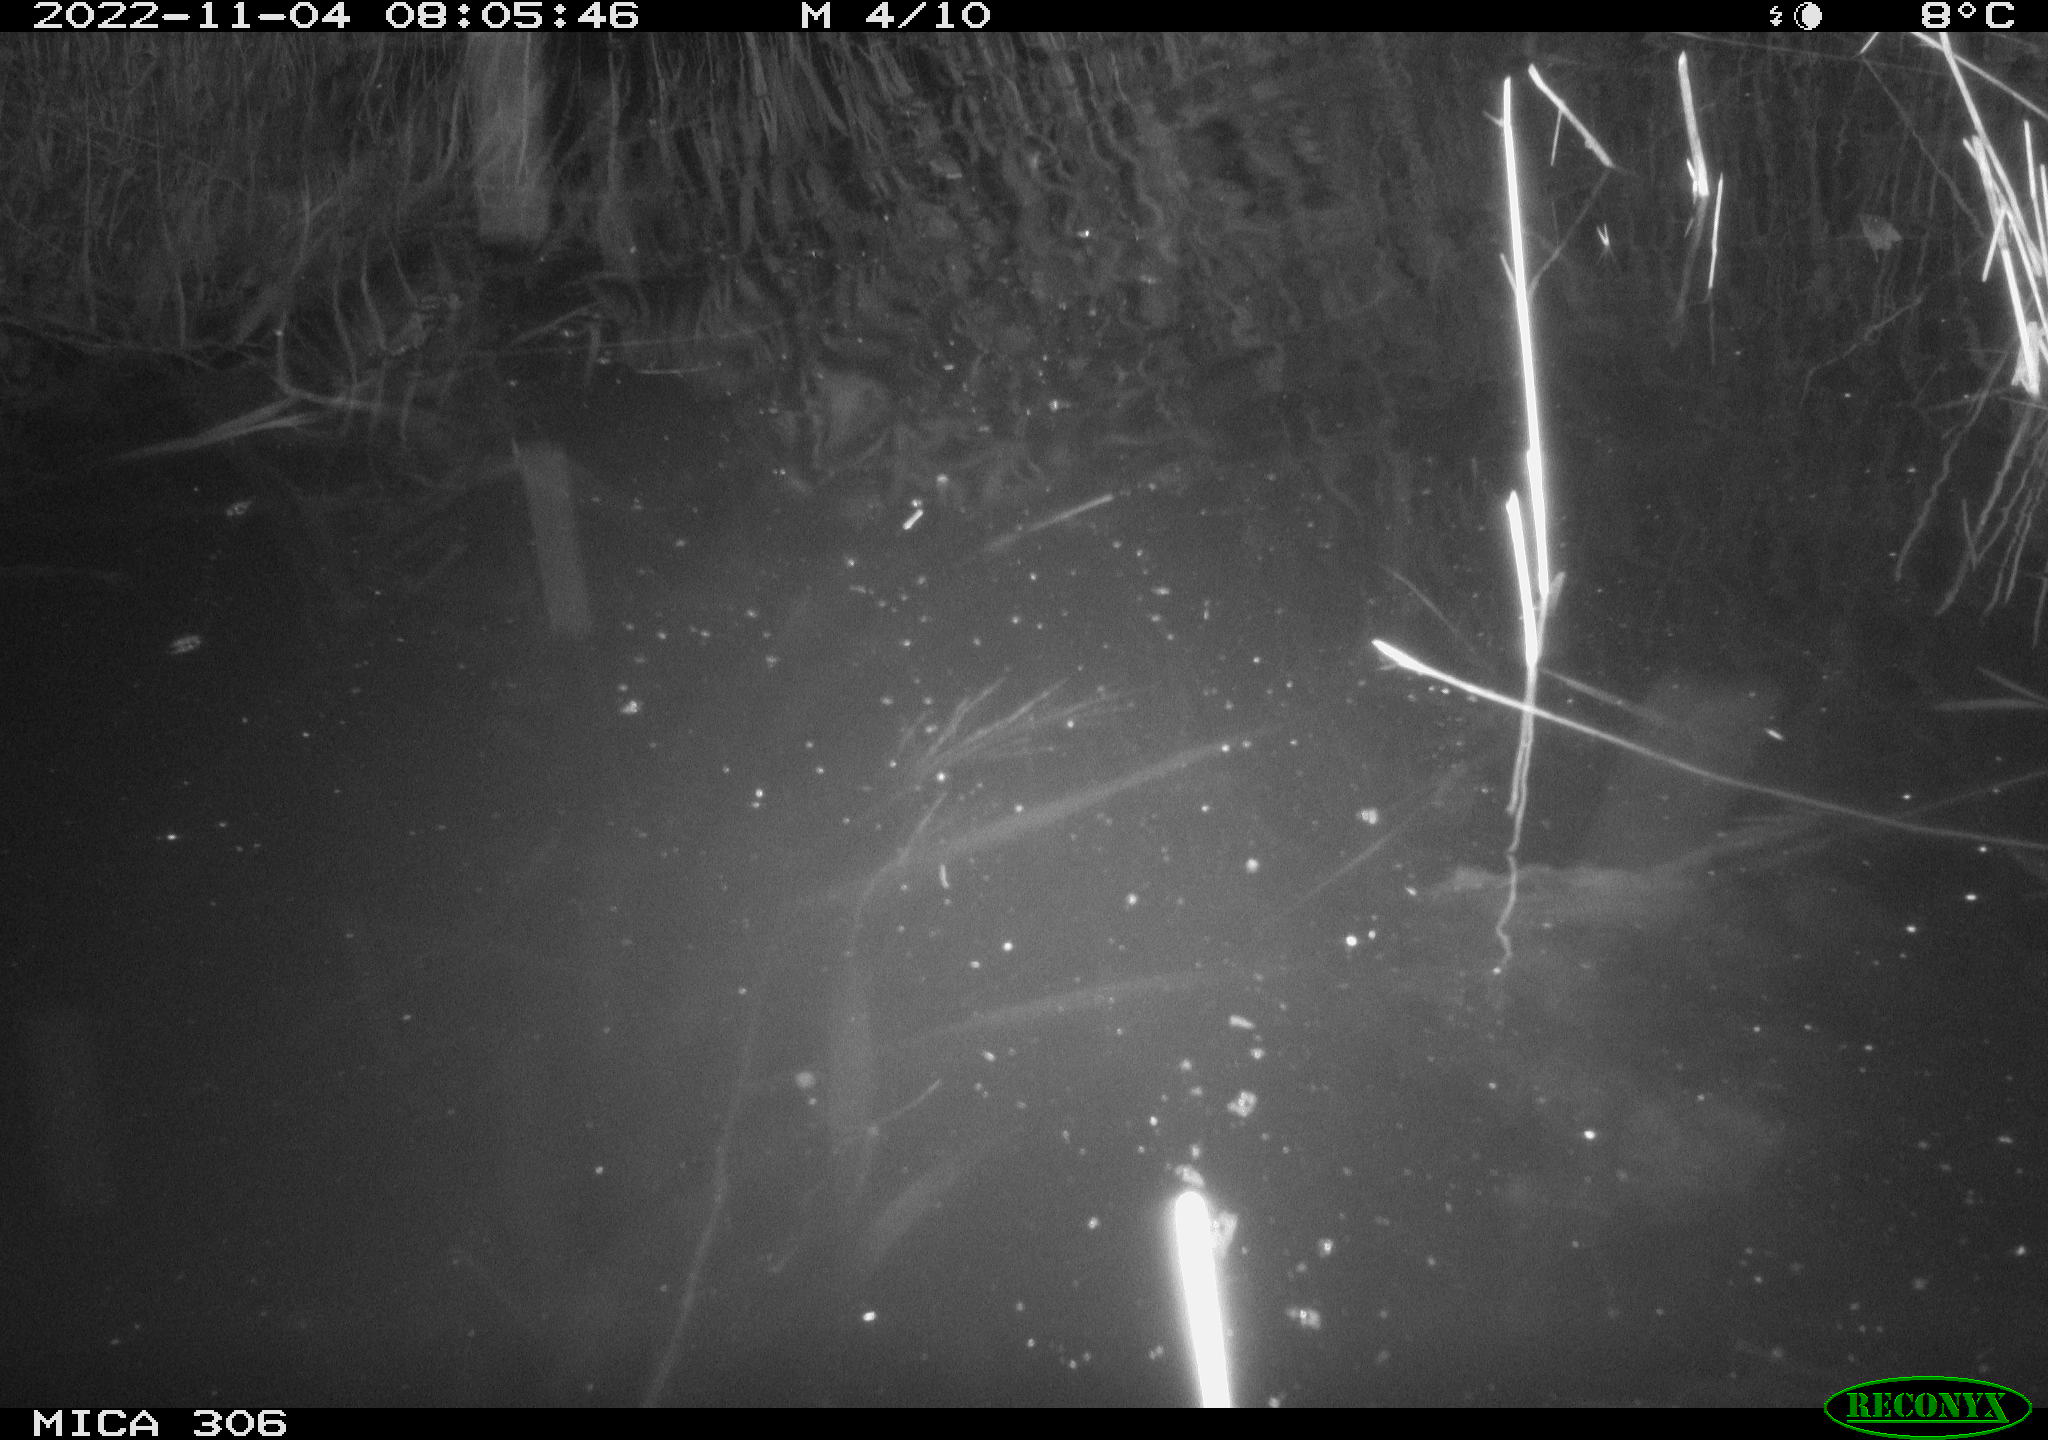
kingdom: Animalia
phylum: Chordata
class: Mammalia
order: Rodentia
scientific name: Rodentia
